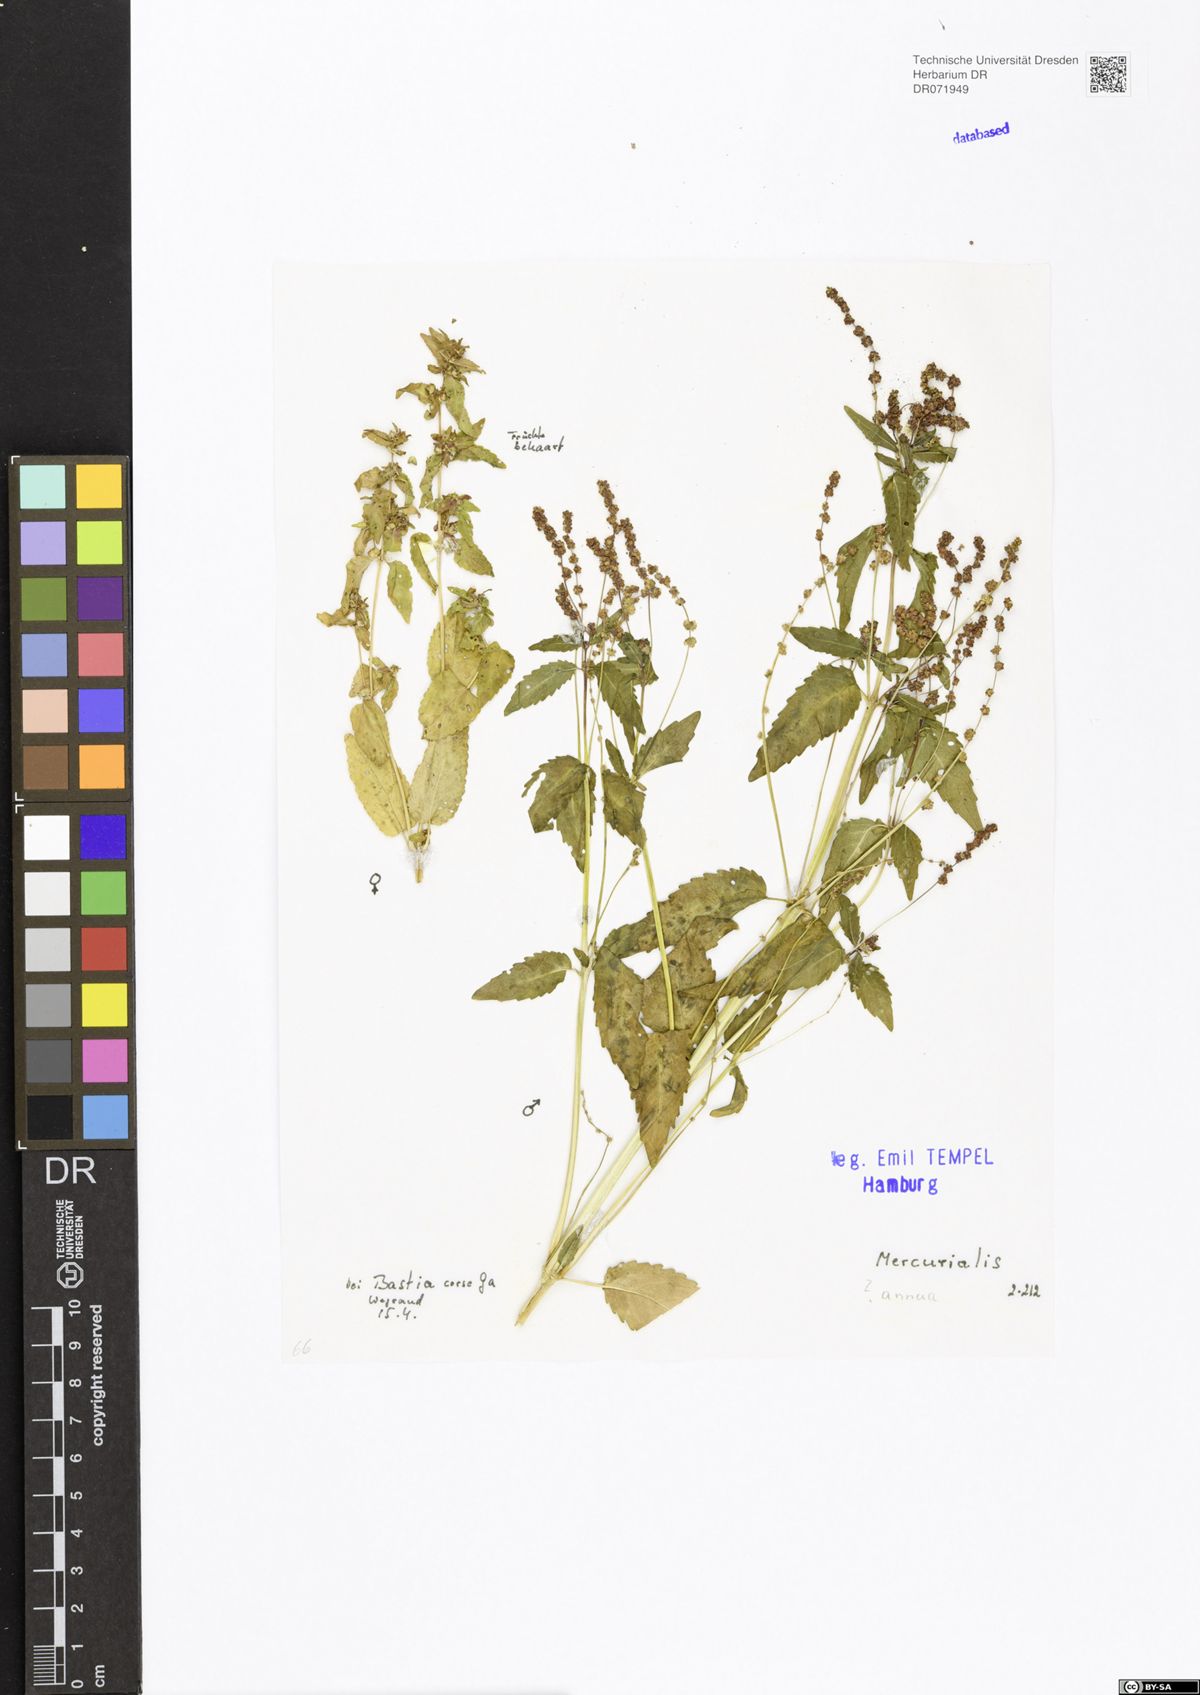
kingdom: Plantae
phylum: Tracheophyta
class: Magnoliopsida
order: Malpighiales
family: Euphorbiaceae
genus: Mercurialis
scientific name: Mercurialis annua
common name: Annual mercury
